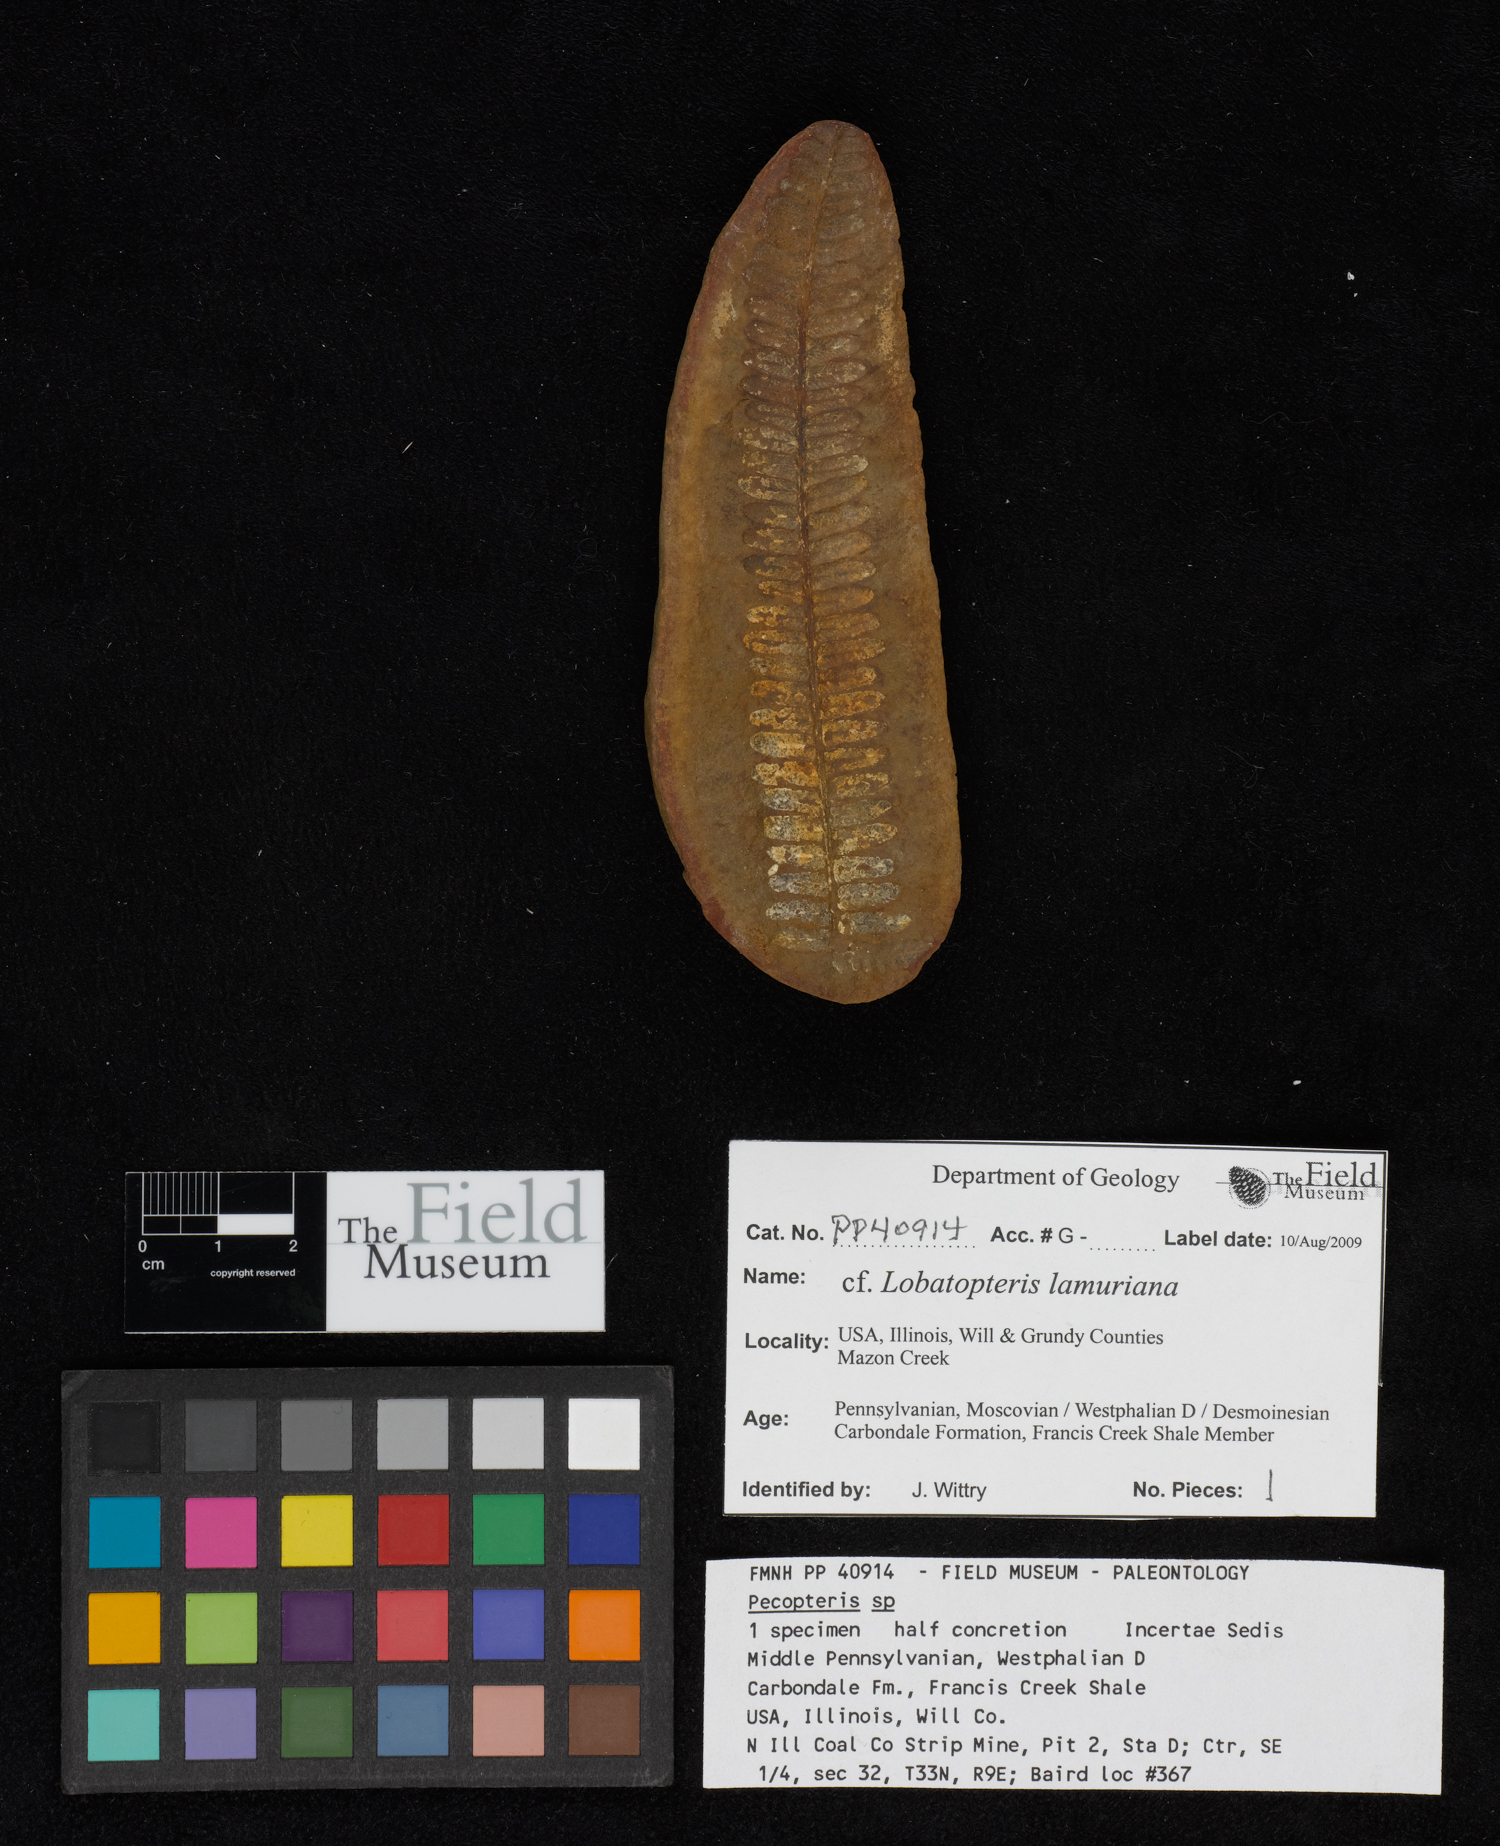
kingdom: Plantae
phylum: Tracheophyta
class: Polypodiopsida
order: Marattiales
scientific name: Marattiales
